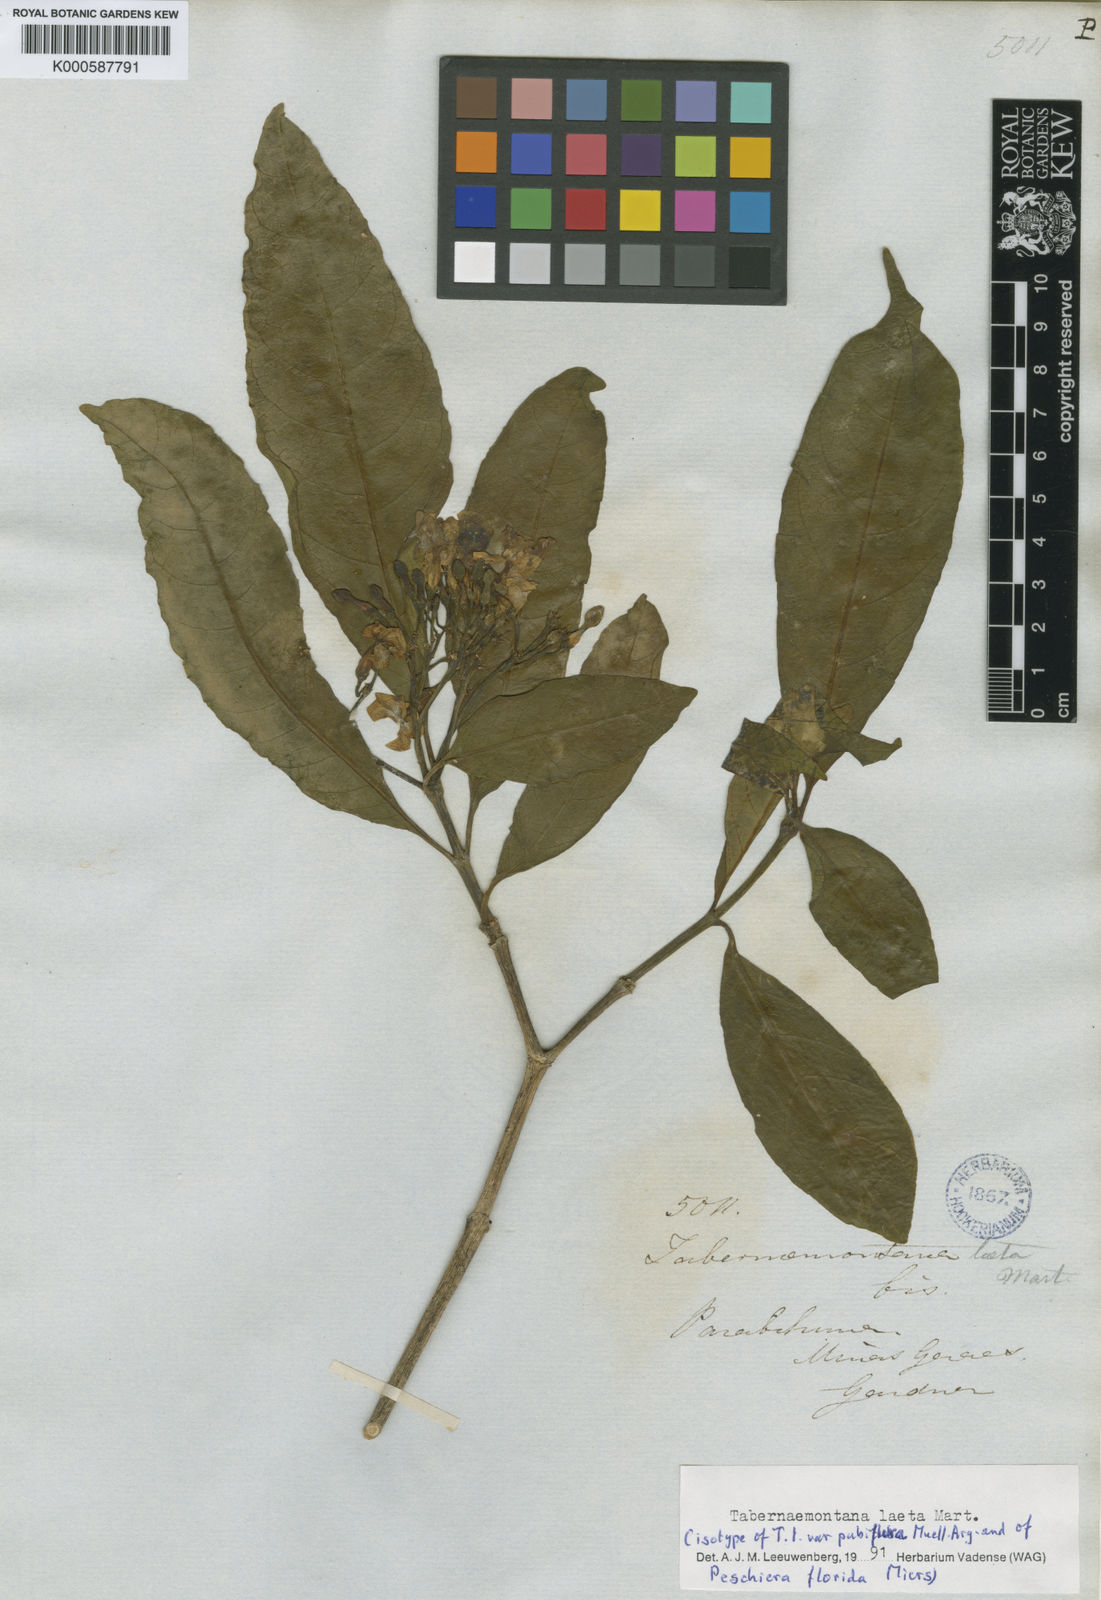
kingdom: Plantae
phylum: Tracheophyta
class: Magnoliopsida
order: Gentianales
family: Apocynaceae
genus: Tabernaemontana
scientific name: Tabernaemontana laeta
